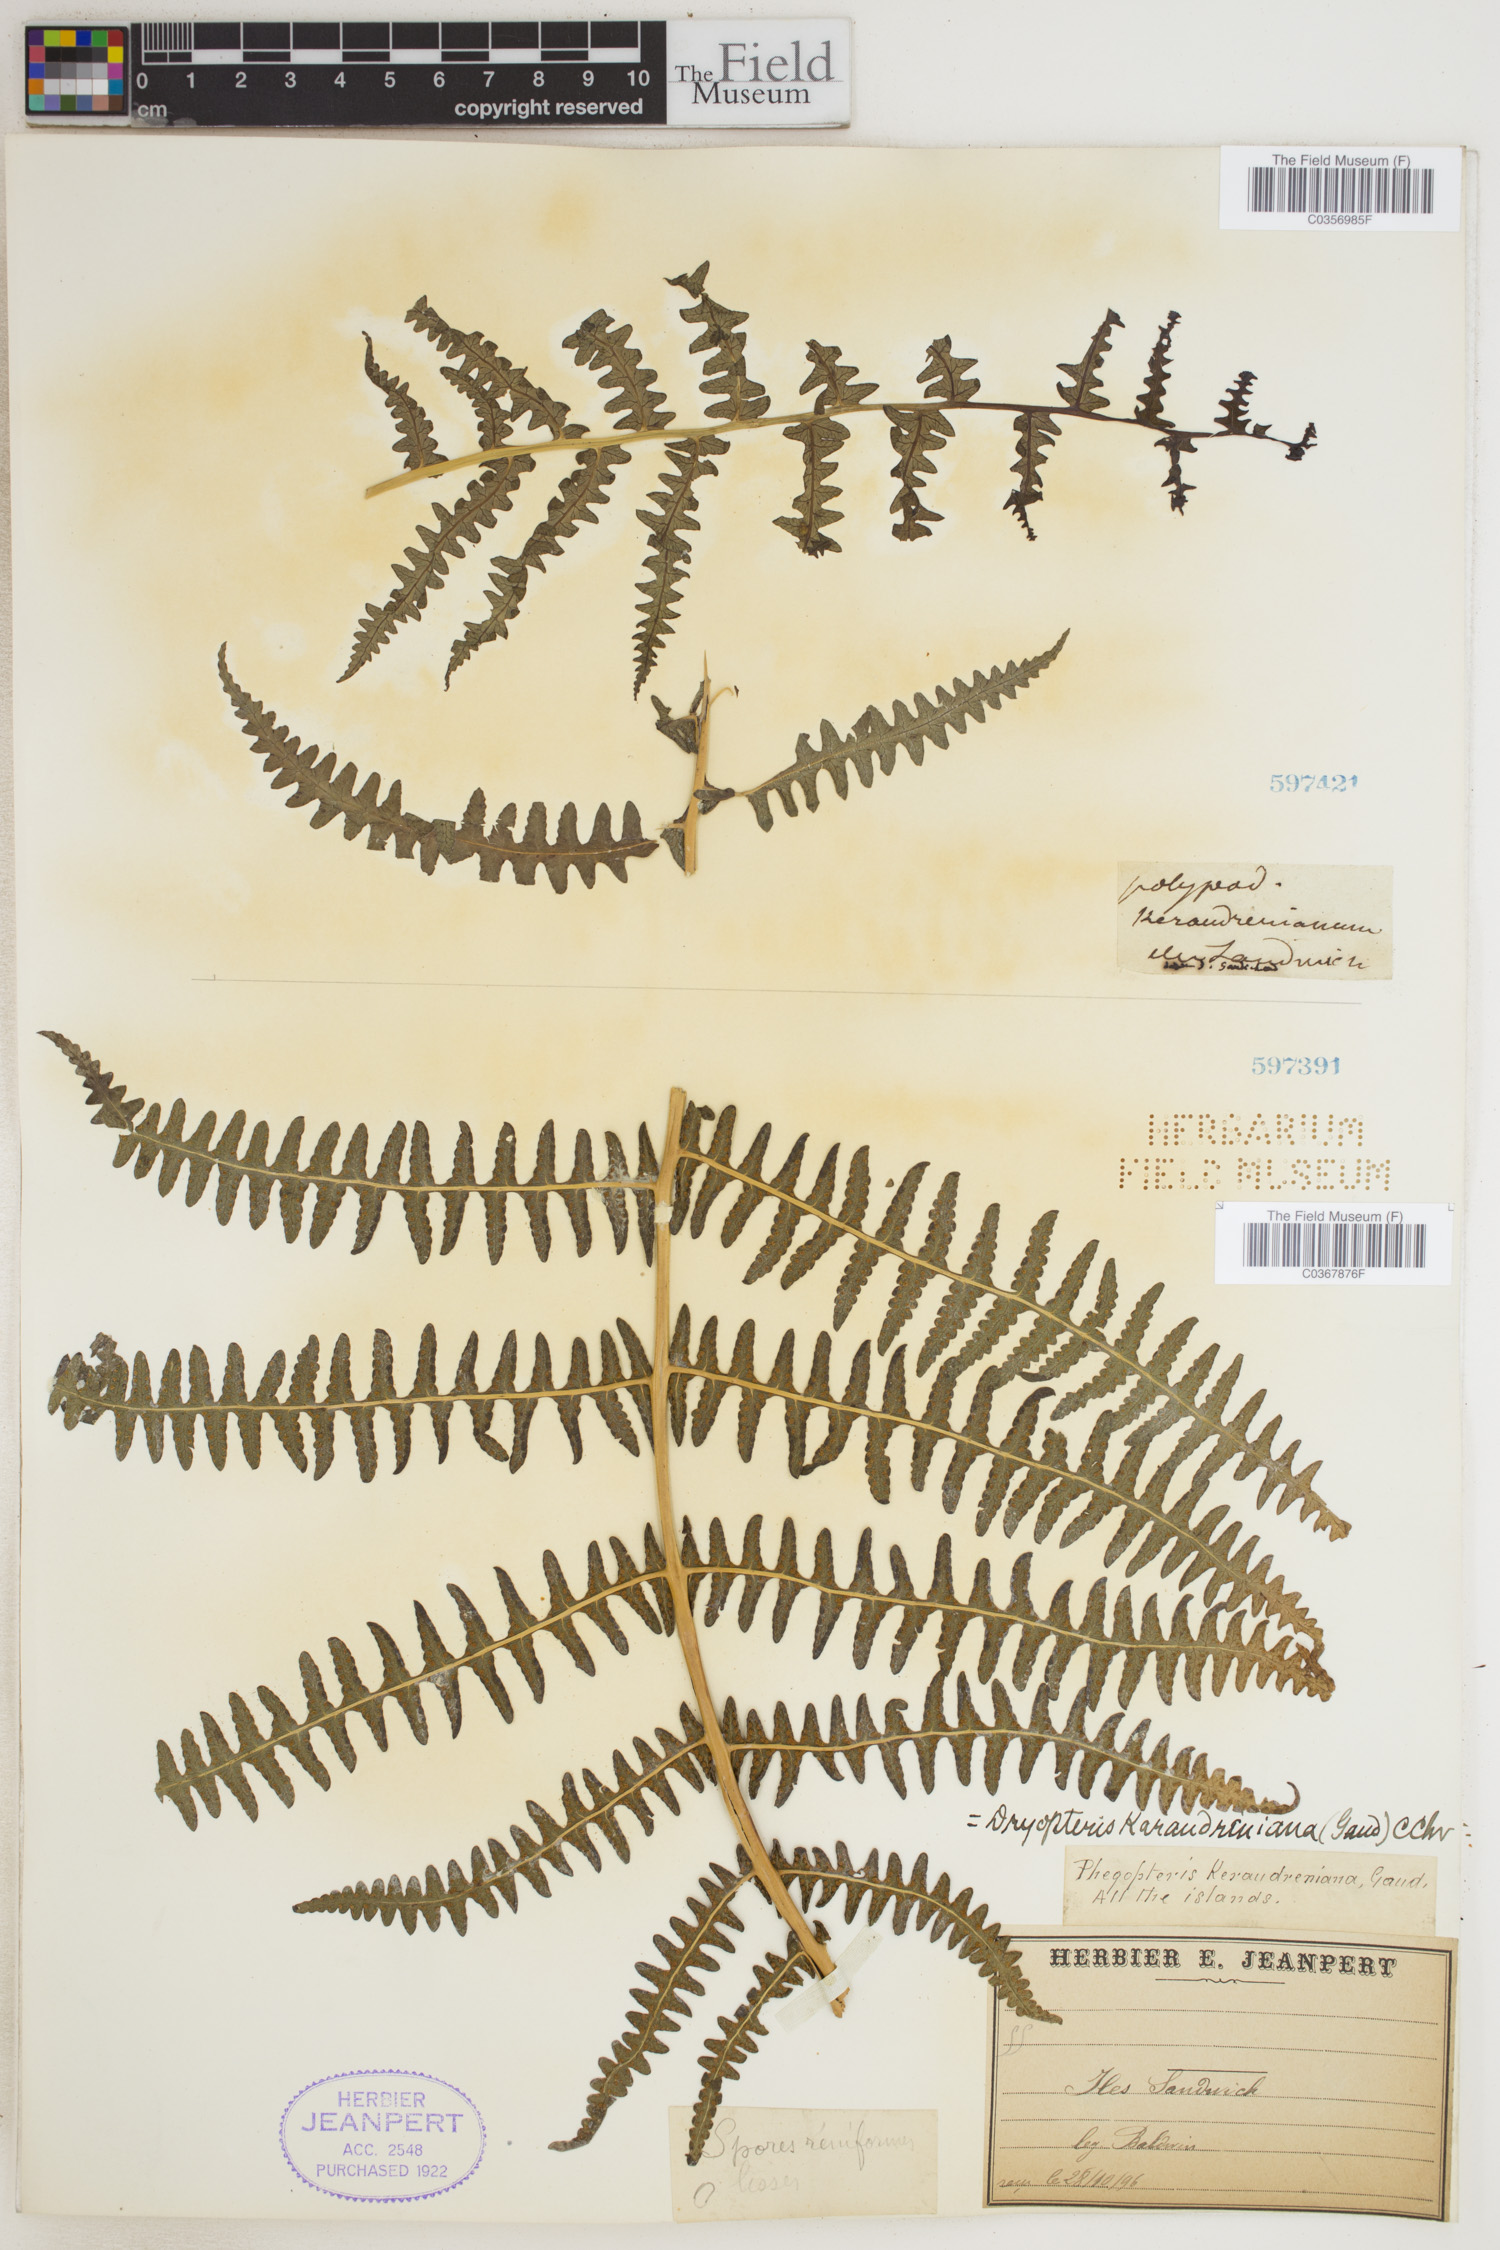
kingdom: Plantae
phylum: Tracheophyta
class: Polypodiopsida
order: Polypodiales
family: Thelypteridaceae
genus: Pseudophegopteris
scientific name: Pseudophegopteris keraudreniana
